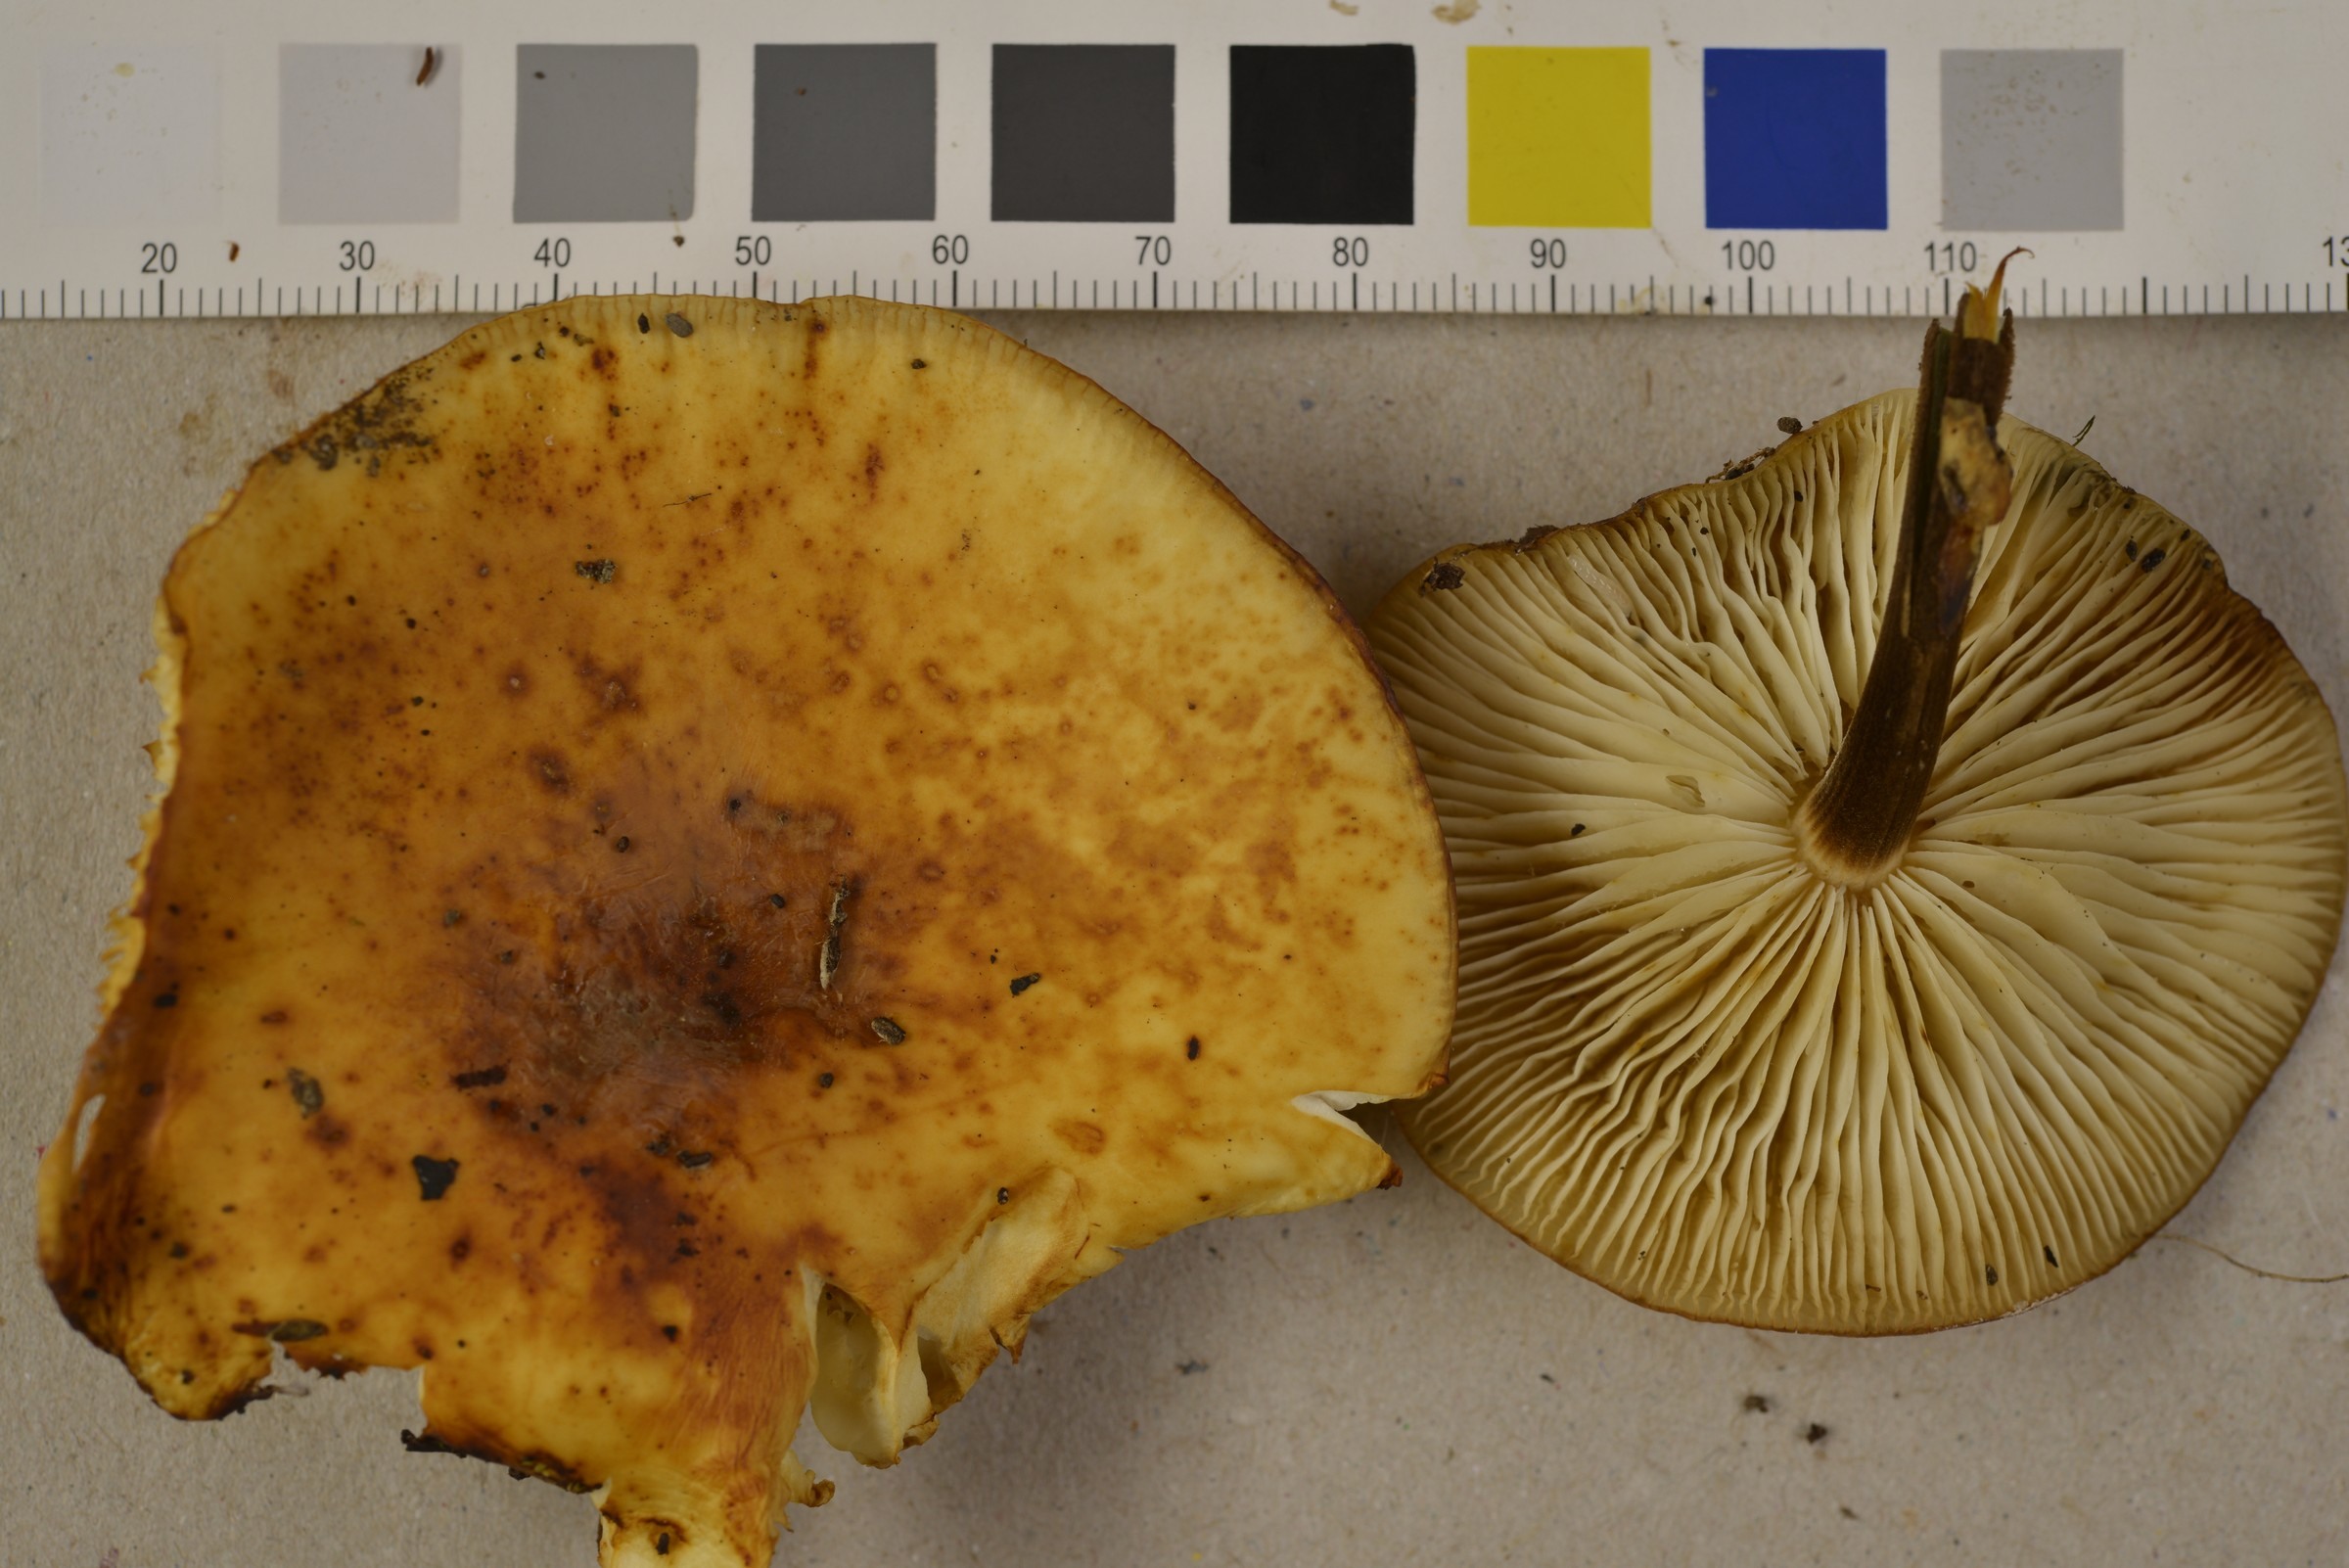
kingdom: Fungi
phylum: Basidiomycota
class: Agaricomycetes
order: Agaricales
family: Physalacriaceae
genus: Flammulina
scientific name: Flammulina velutipes
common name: Velvet shank
